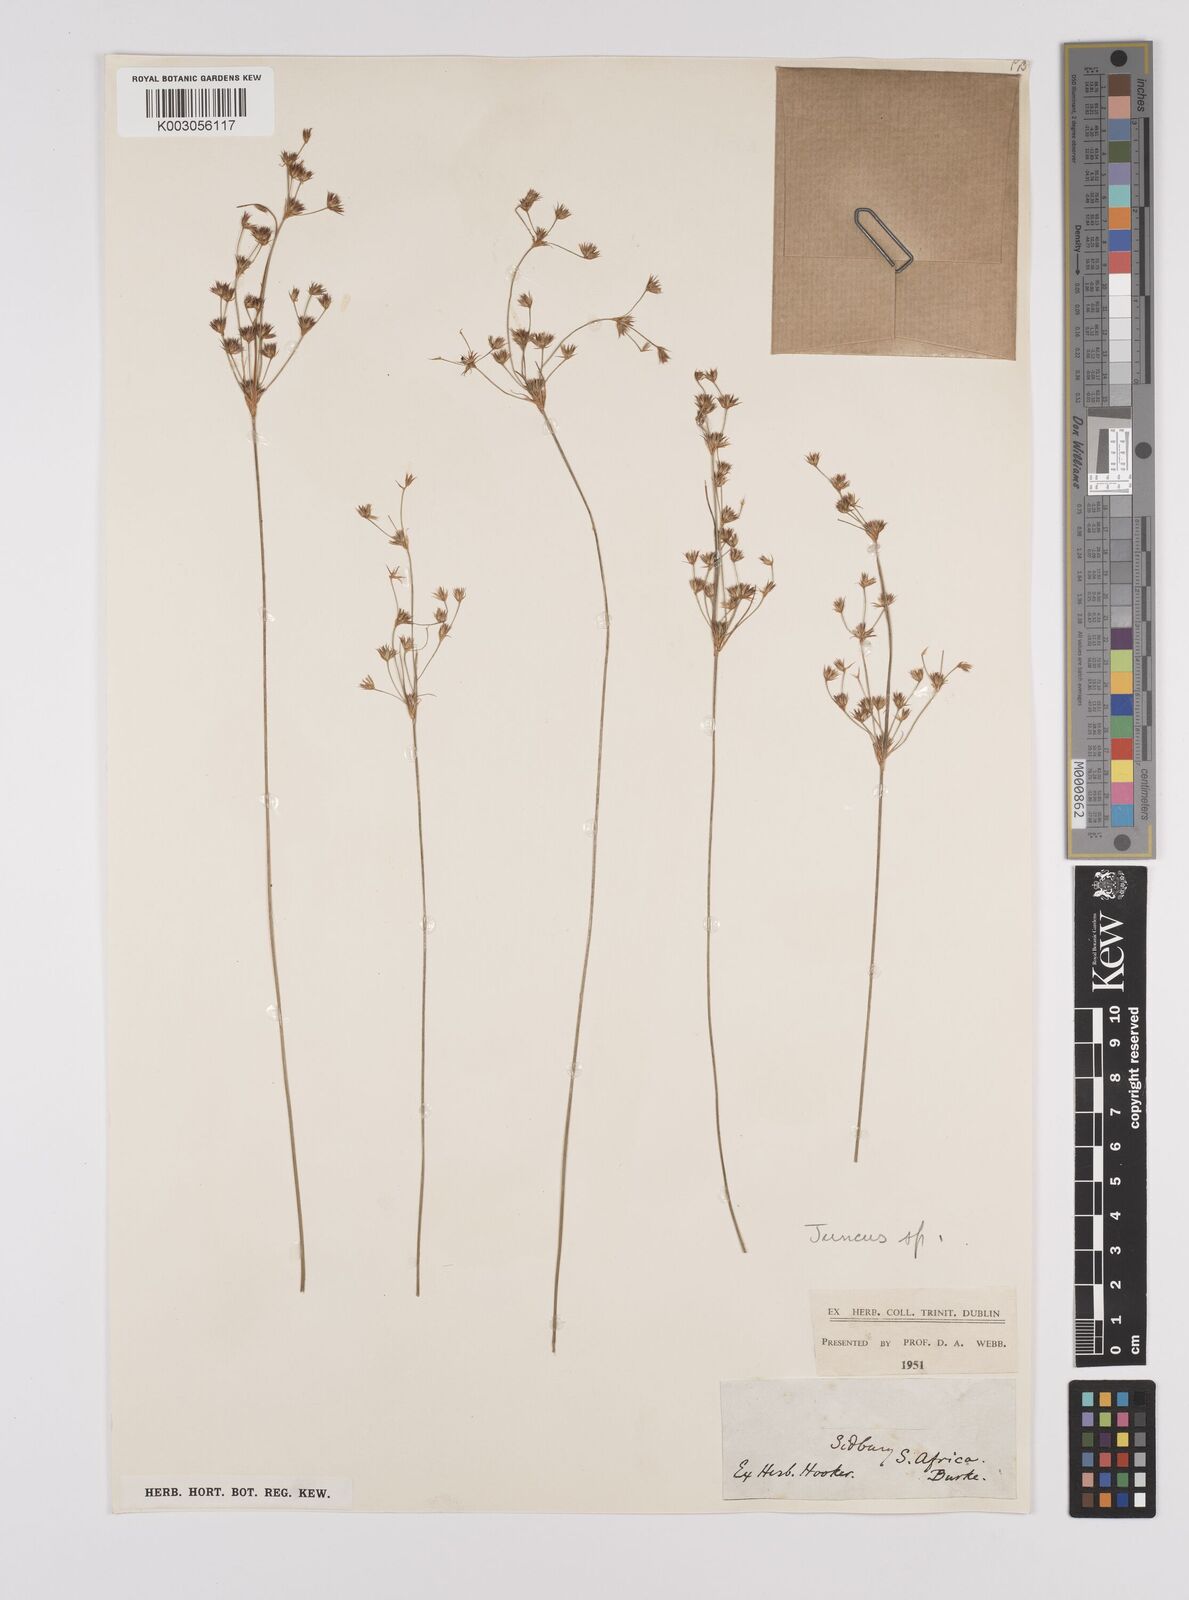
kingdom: Plantae
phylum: Tracheophyta
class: Liliopsida
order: Poales
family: Juncaceae
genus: Juncus
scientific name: Juncus
